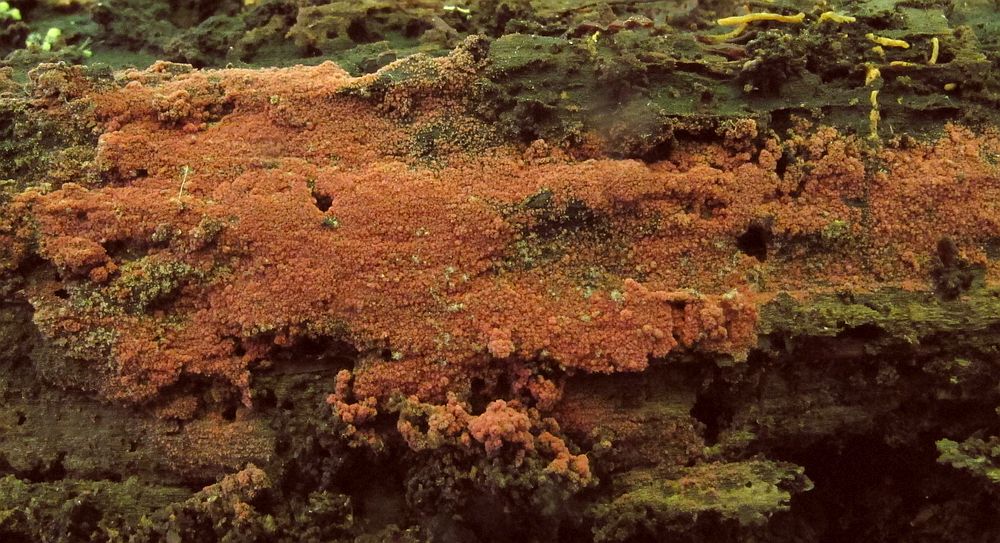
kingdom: Fungi
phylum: Basidiomycota
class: Agaricomycetes
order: Thelephorales
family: Thelephoraceae
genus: Tomentella
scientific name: Tomentella lateritia
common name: teglrød frynsehinde
